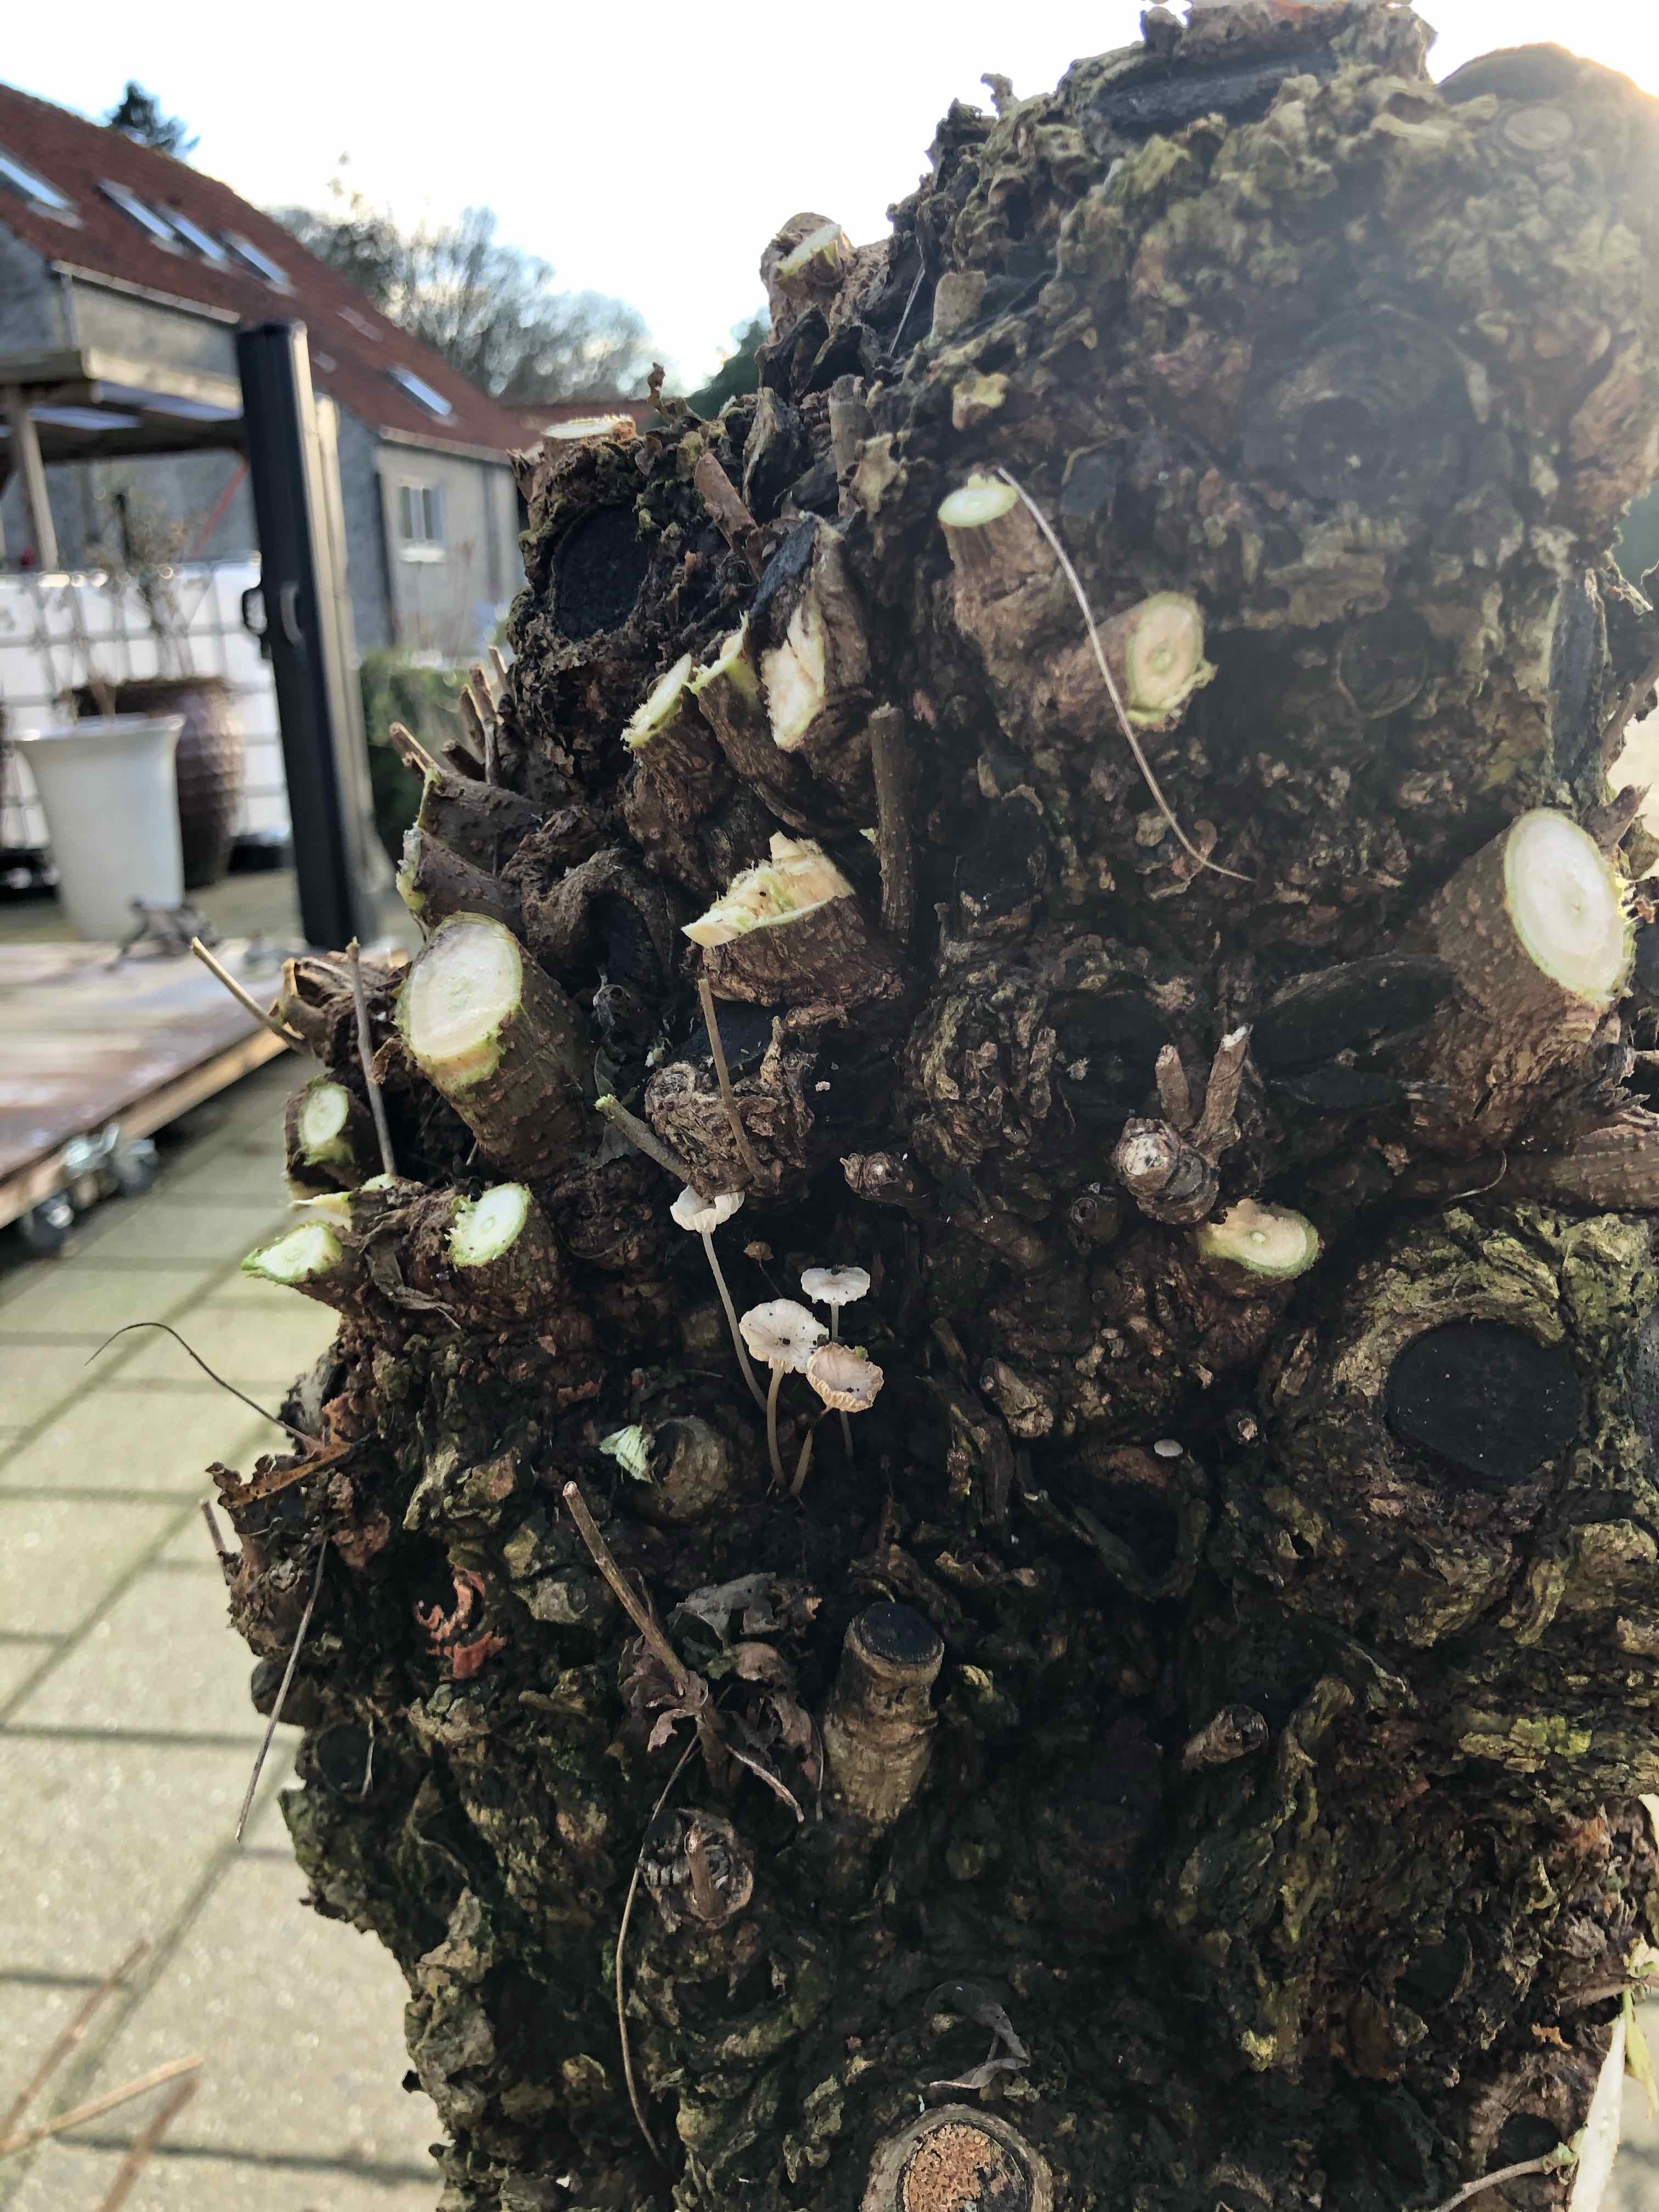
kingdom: Fungi
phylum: Basidiomycota
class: Agaricomycetes
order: Agaricales
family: Porotheleaceae
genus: Phloeomana
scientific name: Phloeomana speirea
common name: kvist-huesvamp
